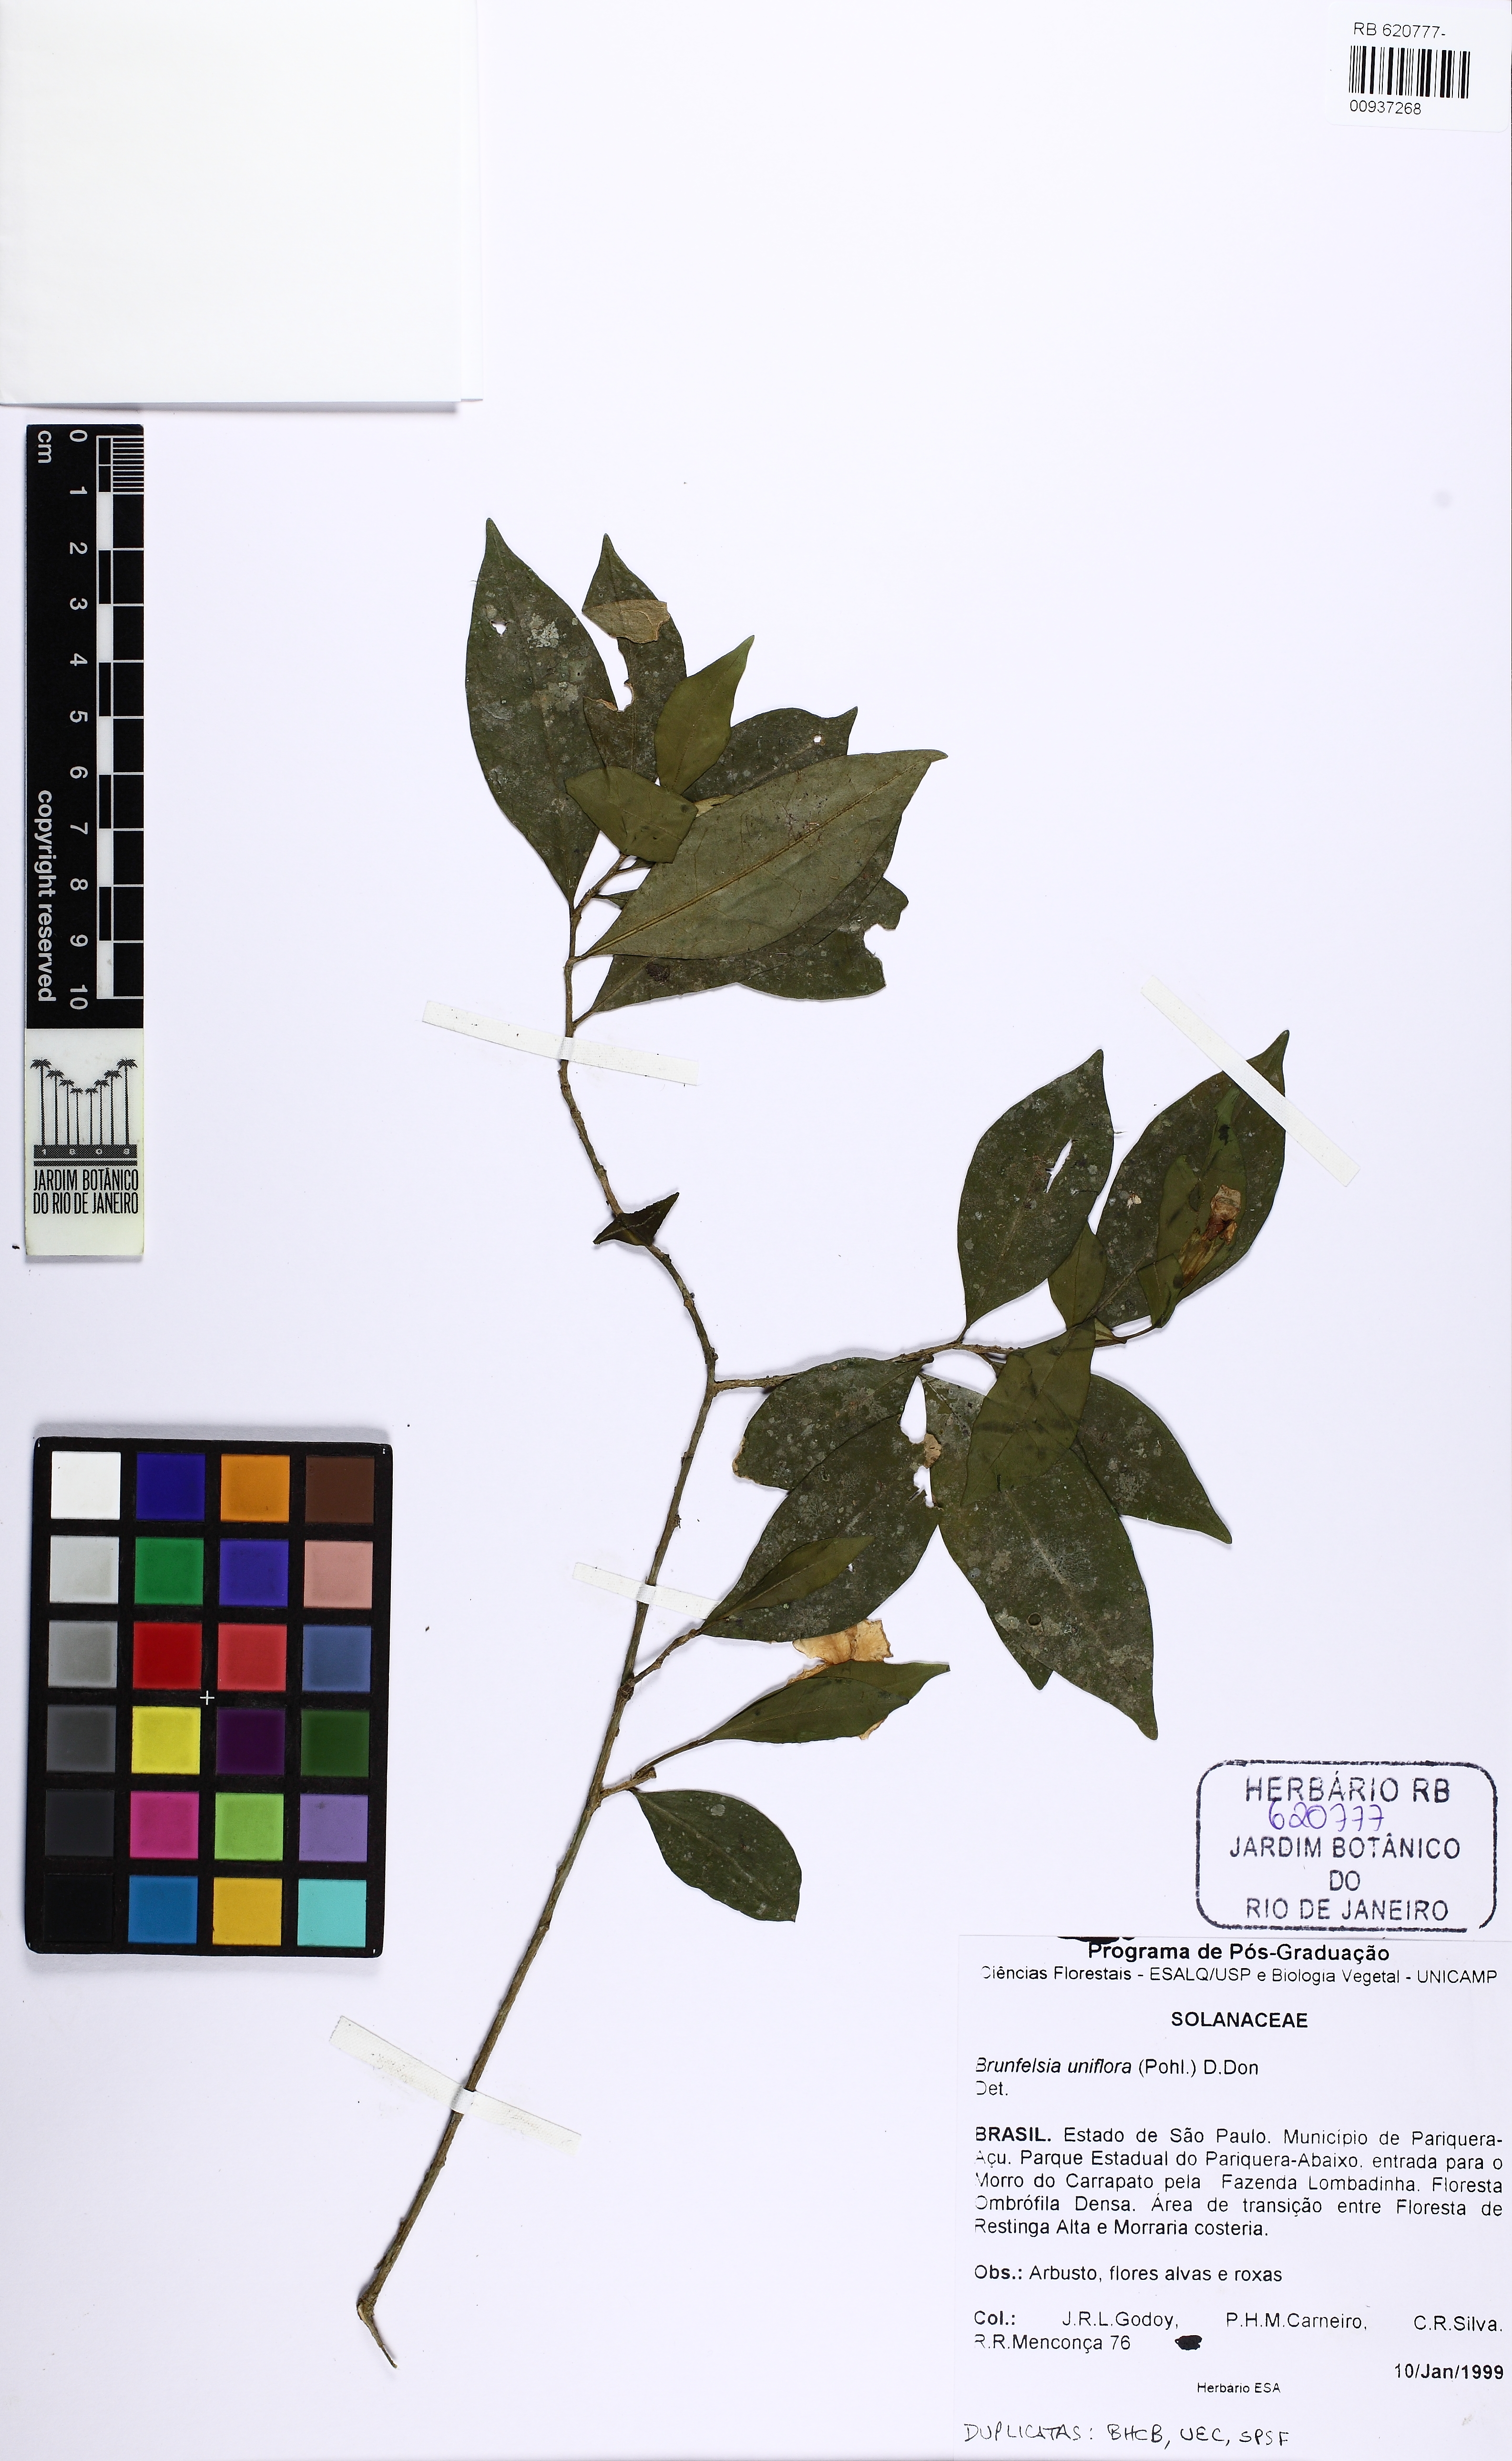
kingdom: Plantae
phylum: Tracheophyta
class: Magnoliopsida
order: Solanales
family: Solanaceae
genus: Brunfelsia
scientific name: Brunfelsia uniflora
